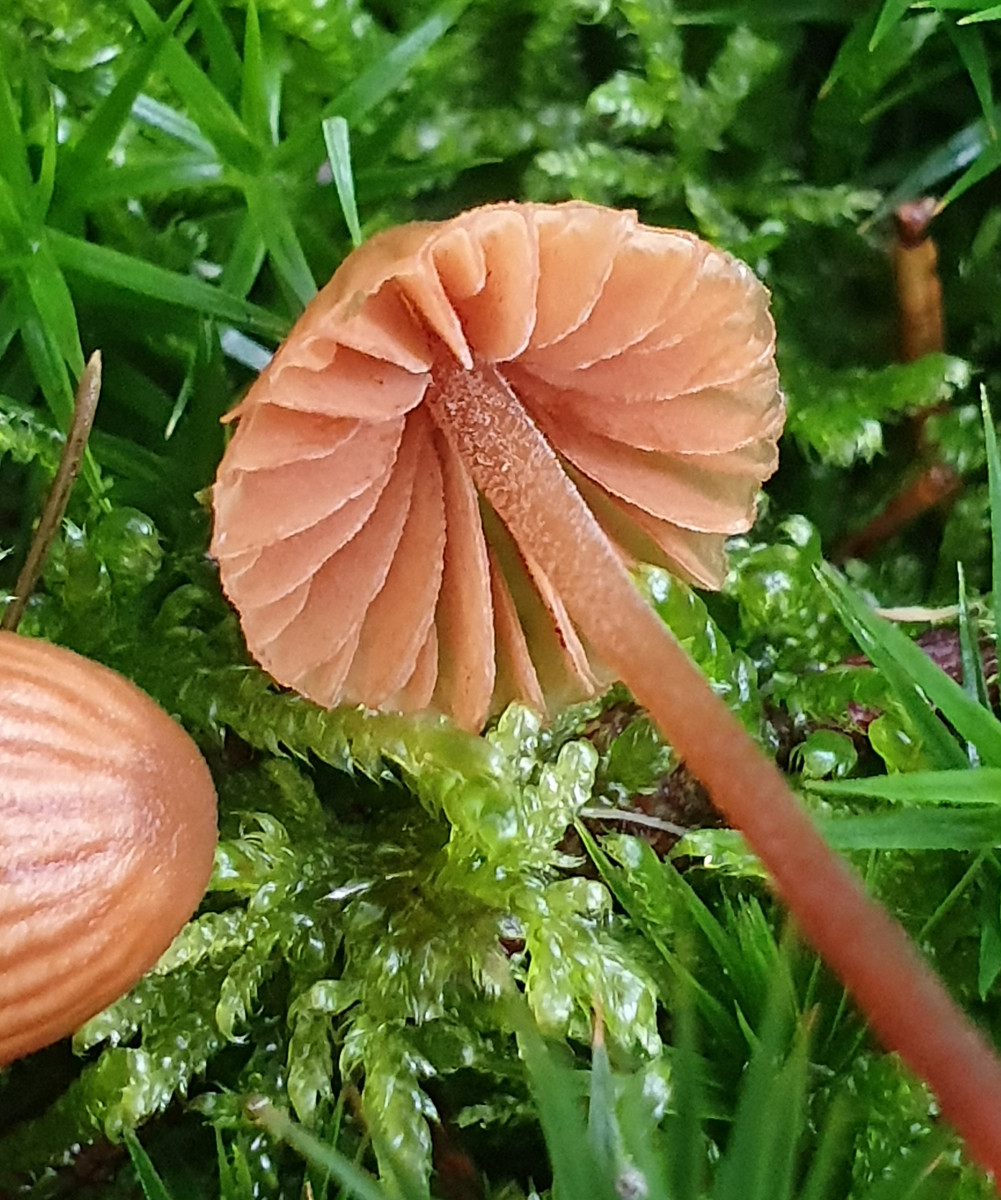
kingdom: Fungi
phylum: Basidiomycota
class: Agaricomycetes
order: Agaricales
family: Hymenogastraceae
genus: Galerina
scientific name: Galerina vittiformis
